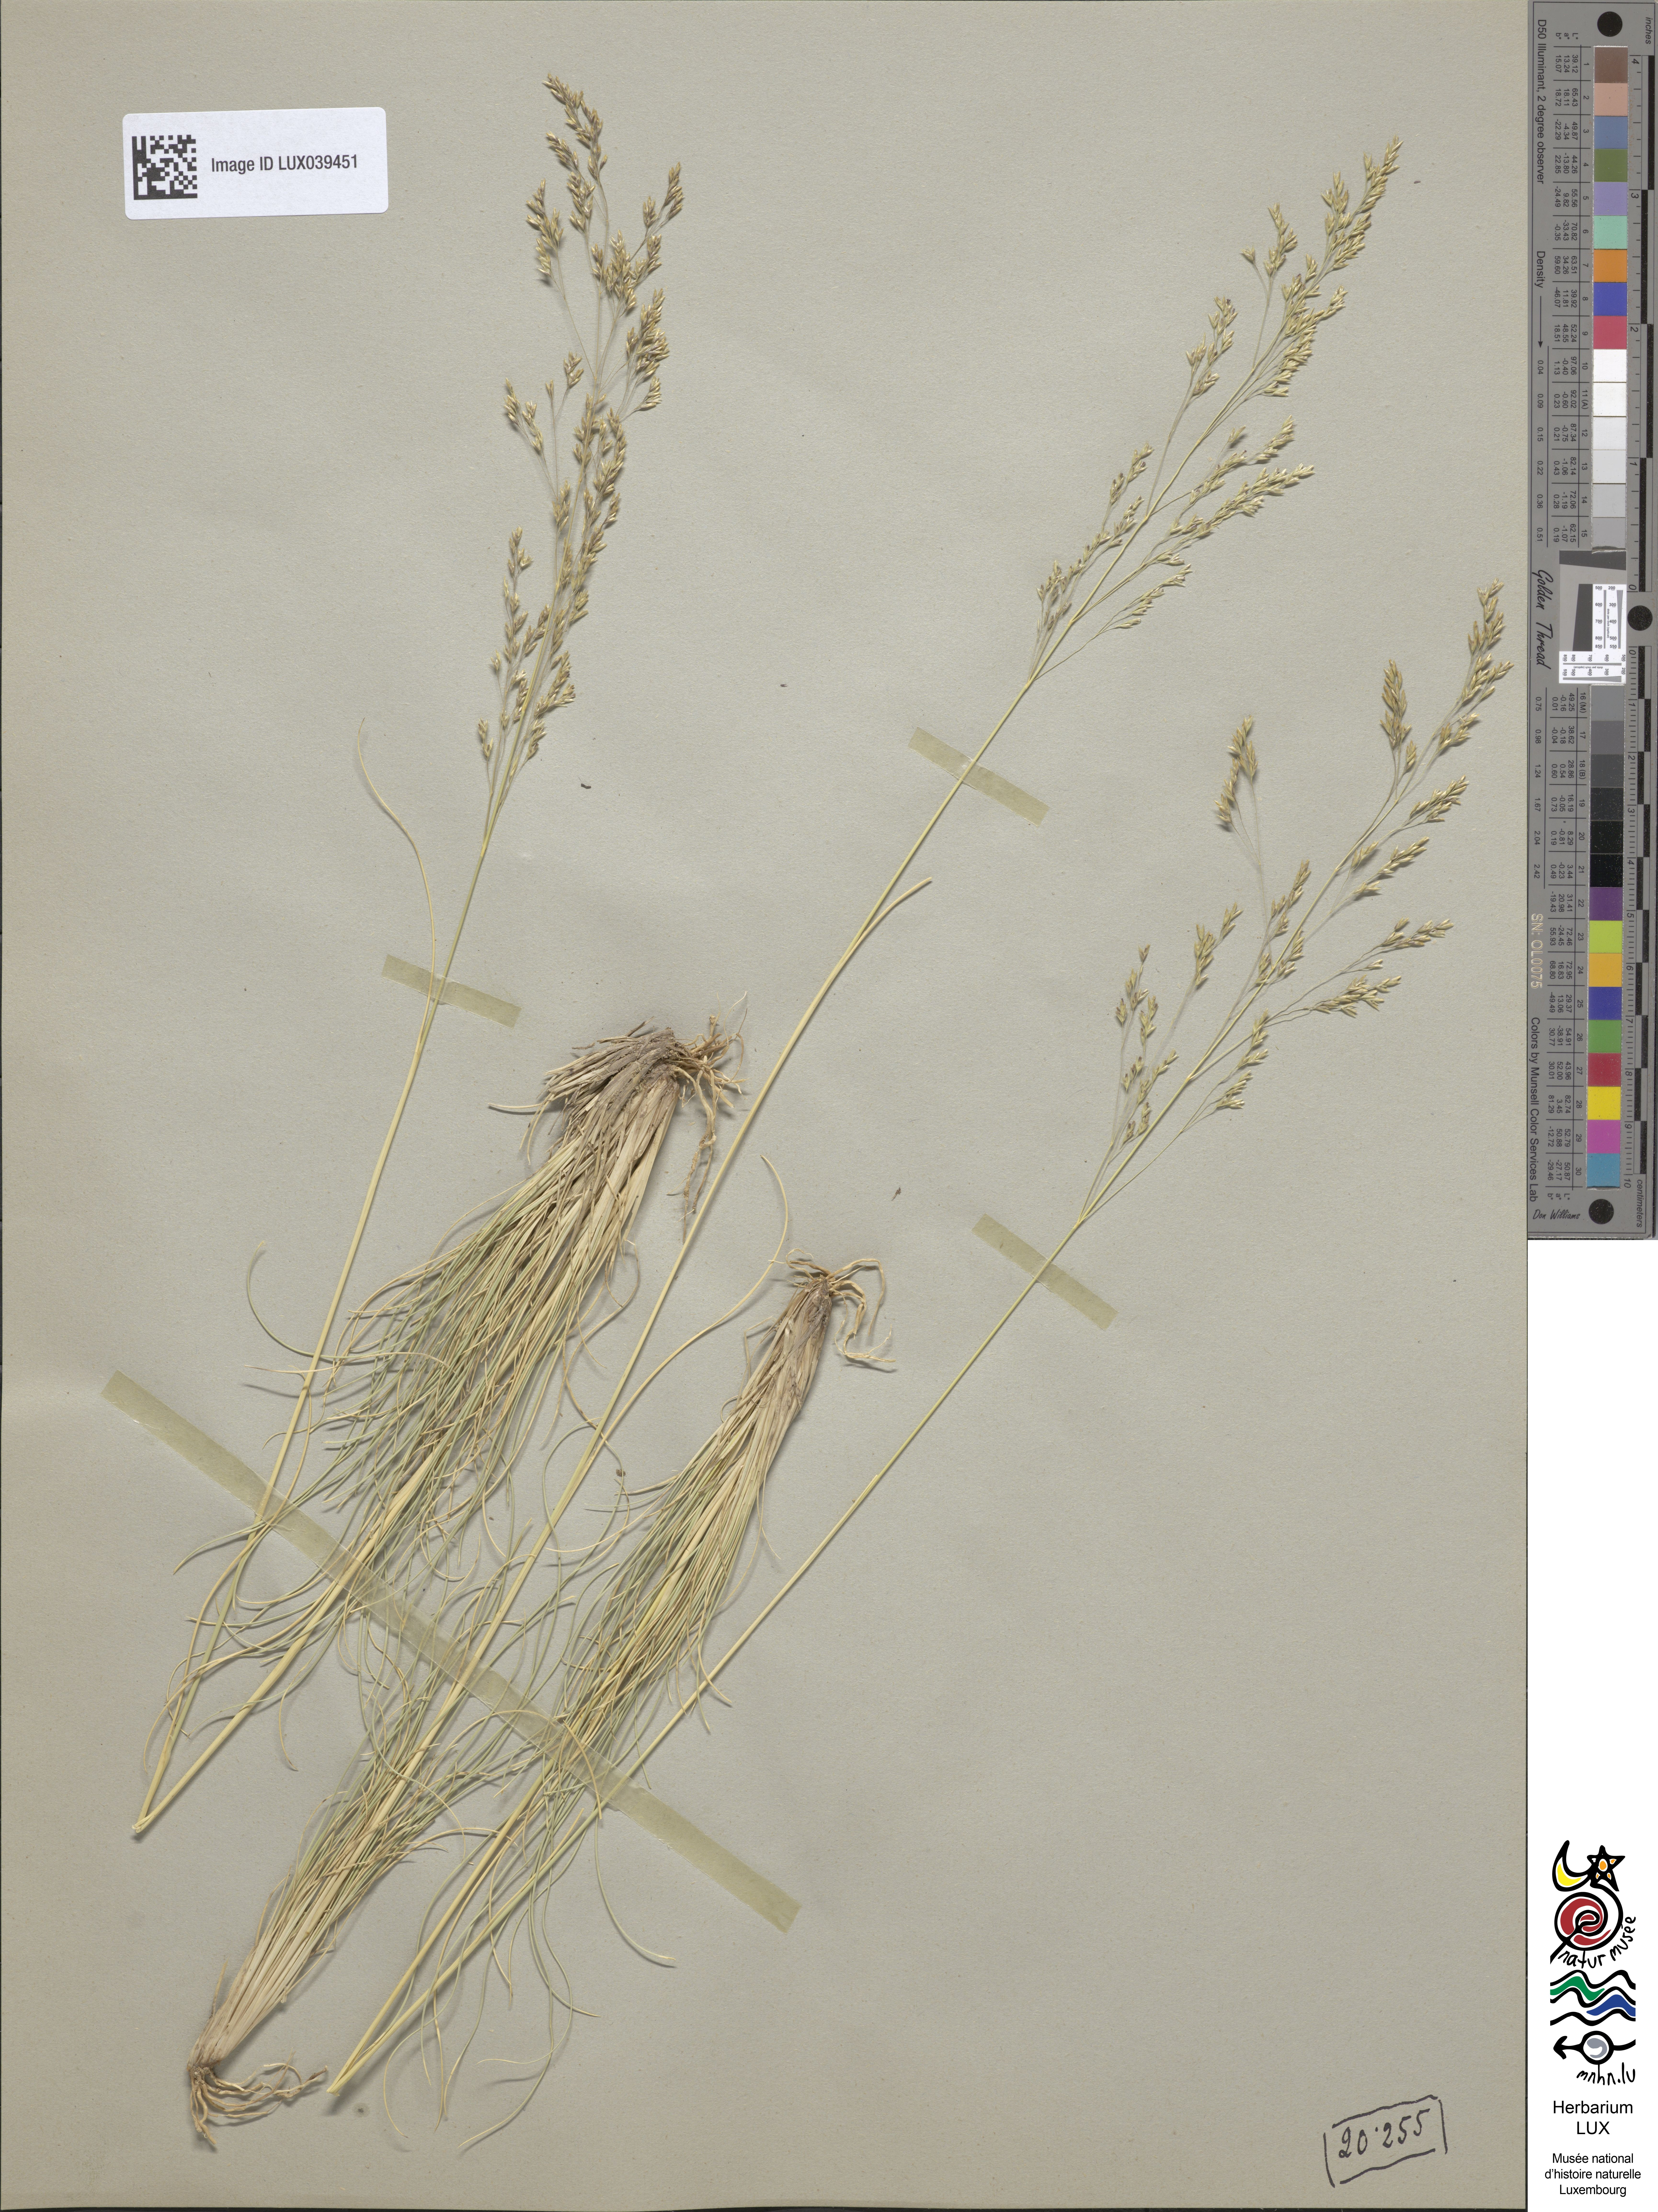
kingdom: Plantae
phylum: Tracheophyta
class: Liliopsida
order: Poales
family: Poaceae
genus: Deschampsia
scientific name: Deschampsia media
